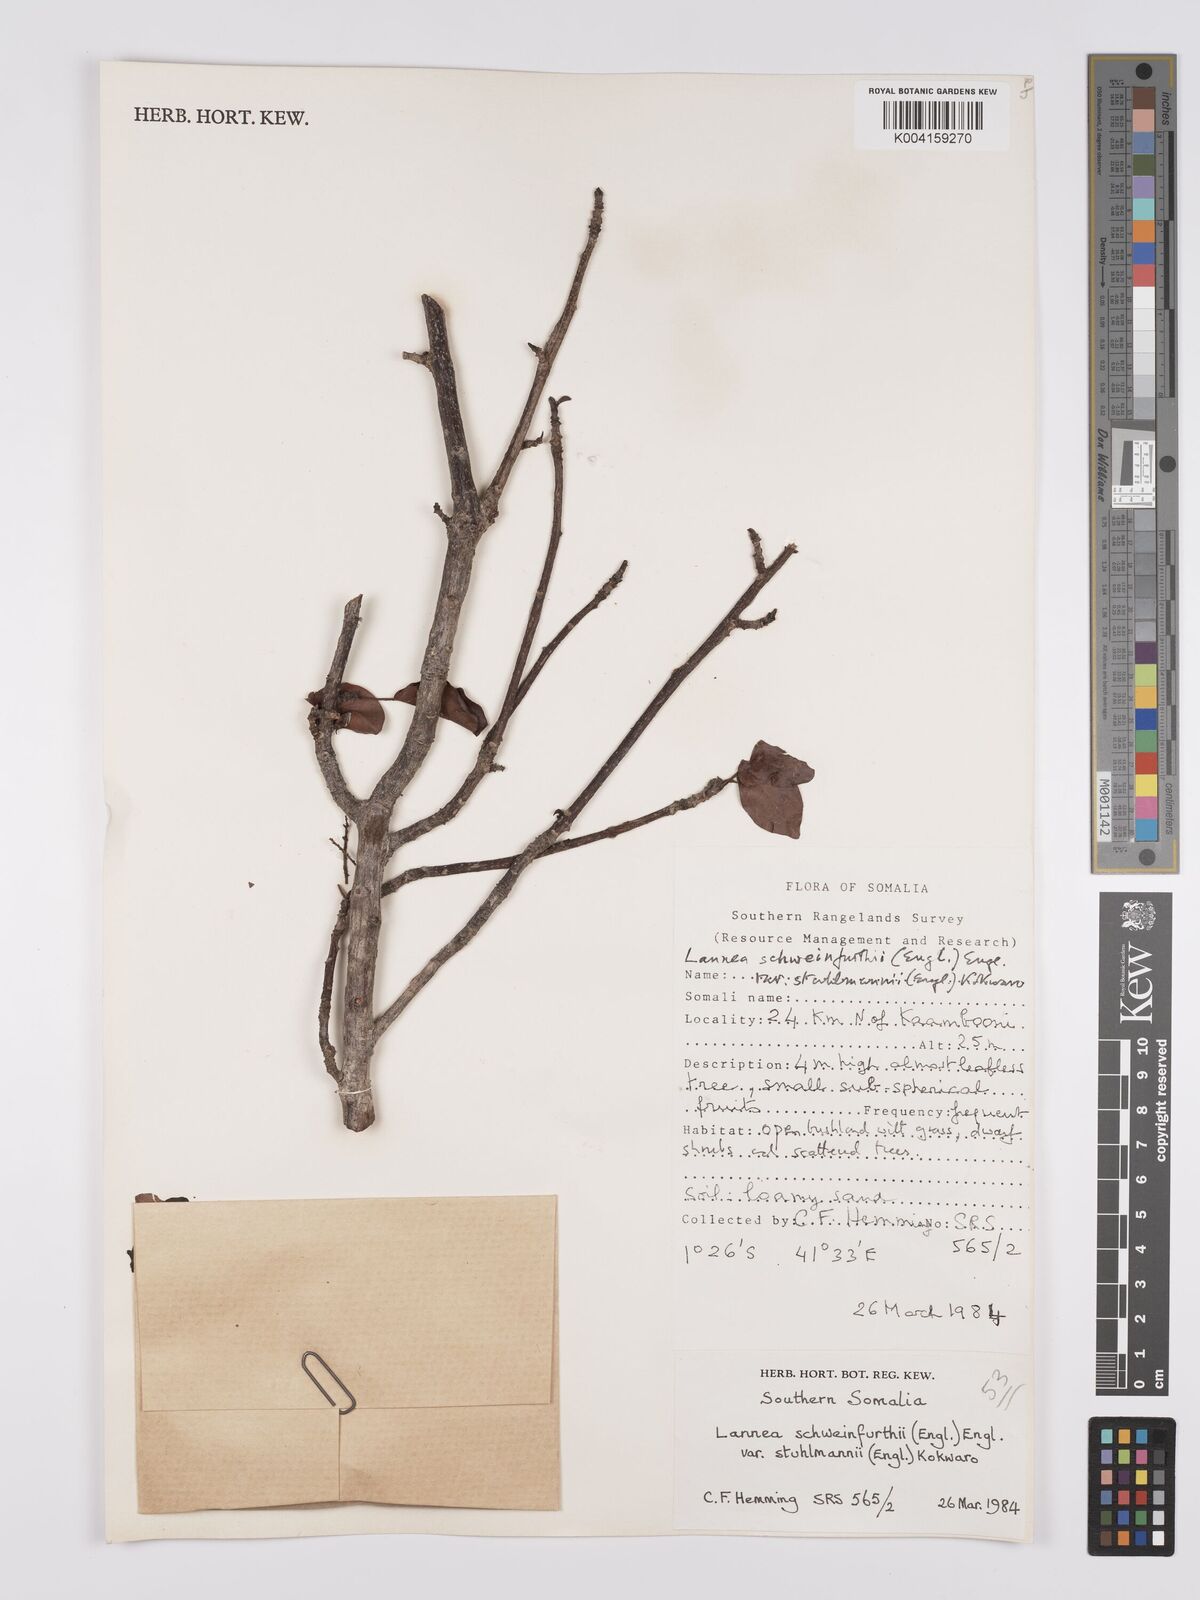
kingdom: Plantae
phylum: Tracheophyta
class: Magnoliopsida
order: Sapindales
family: Anacardiaceae
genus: Lannea
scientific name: Lannea schweinfurthii
